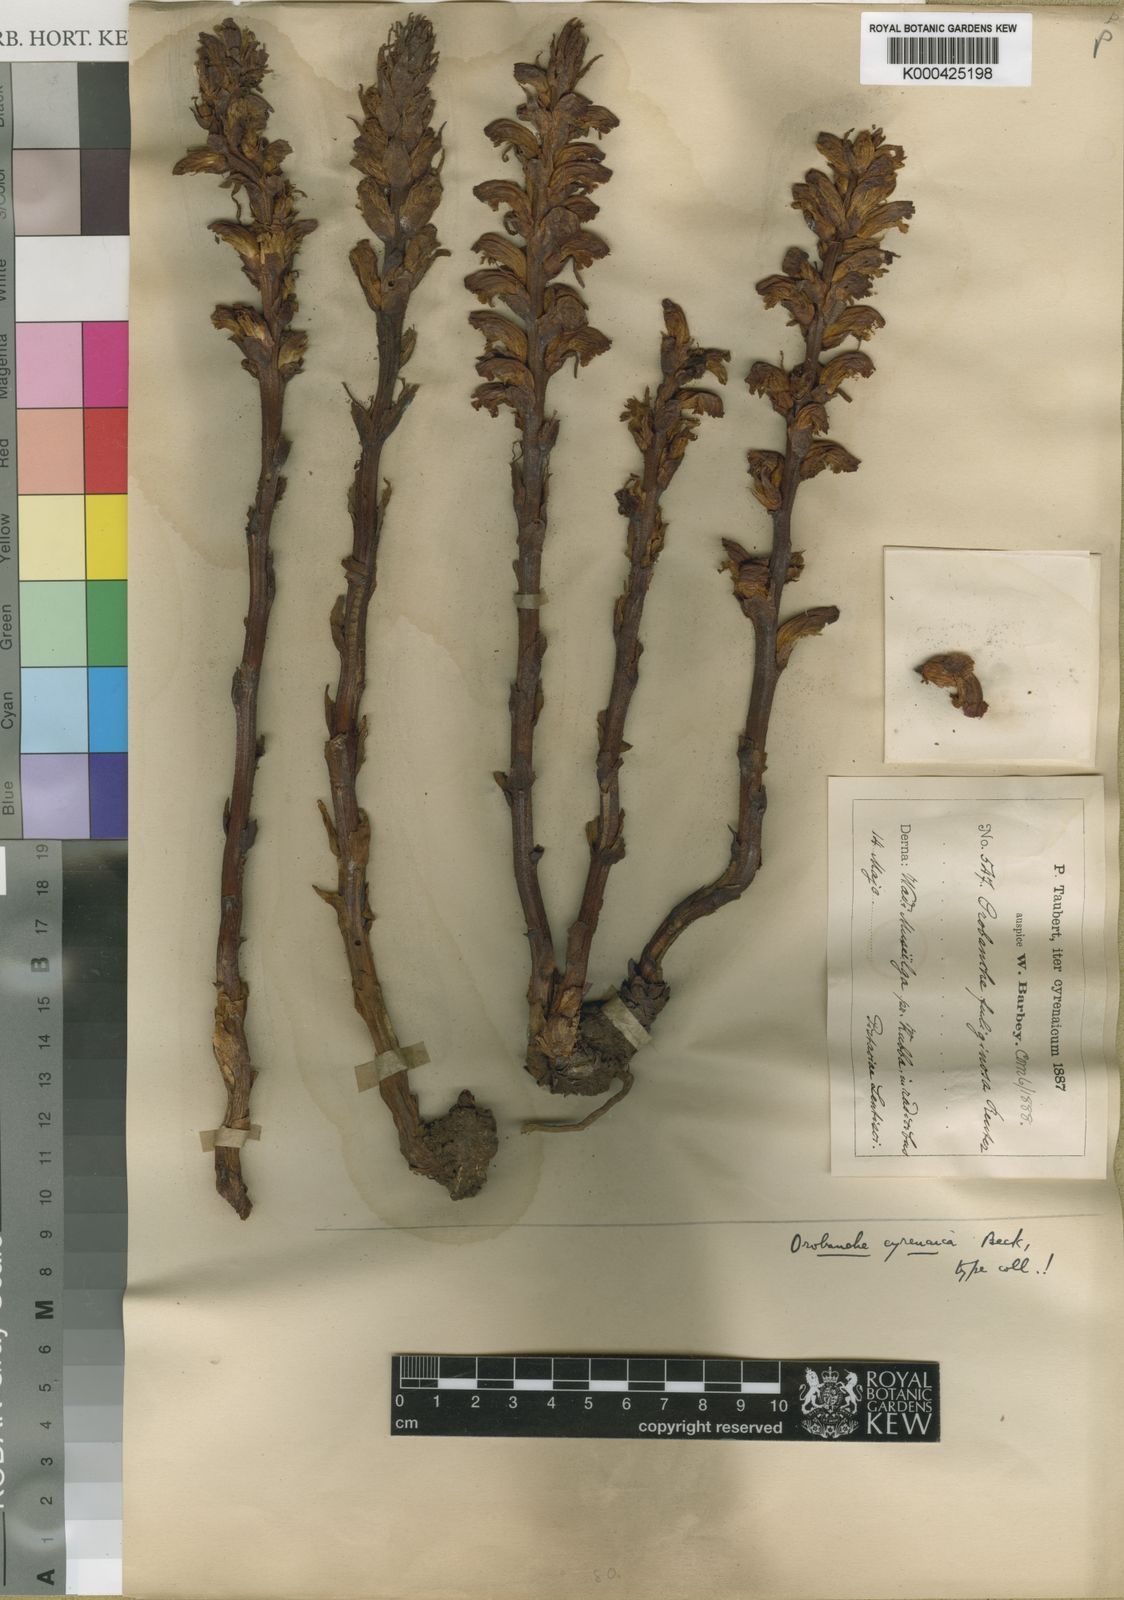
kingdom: Plantae
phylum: Tracheophyta
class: Magnoliopsida
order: Lamiales
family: Orobanchaceae
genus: Orobanche
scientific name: Orobanche cyrenaica
